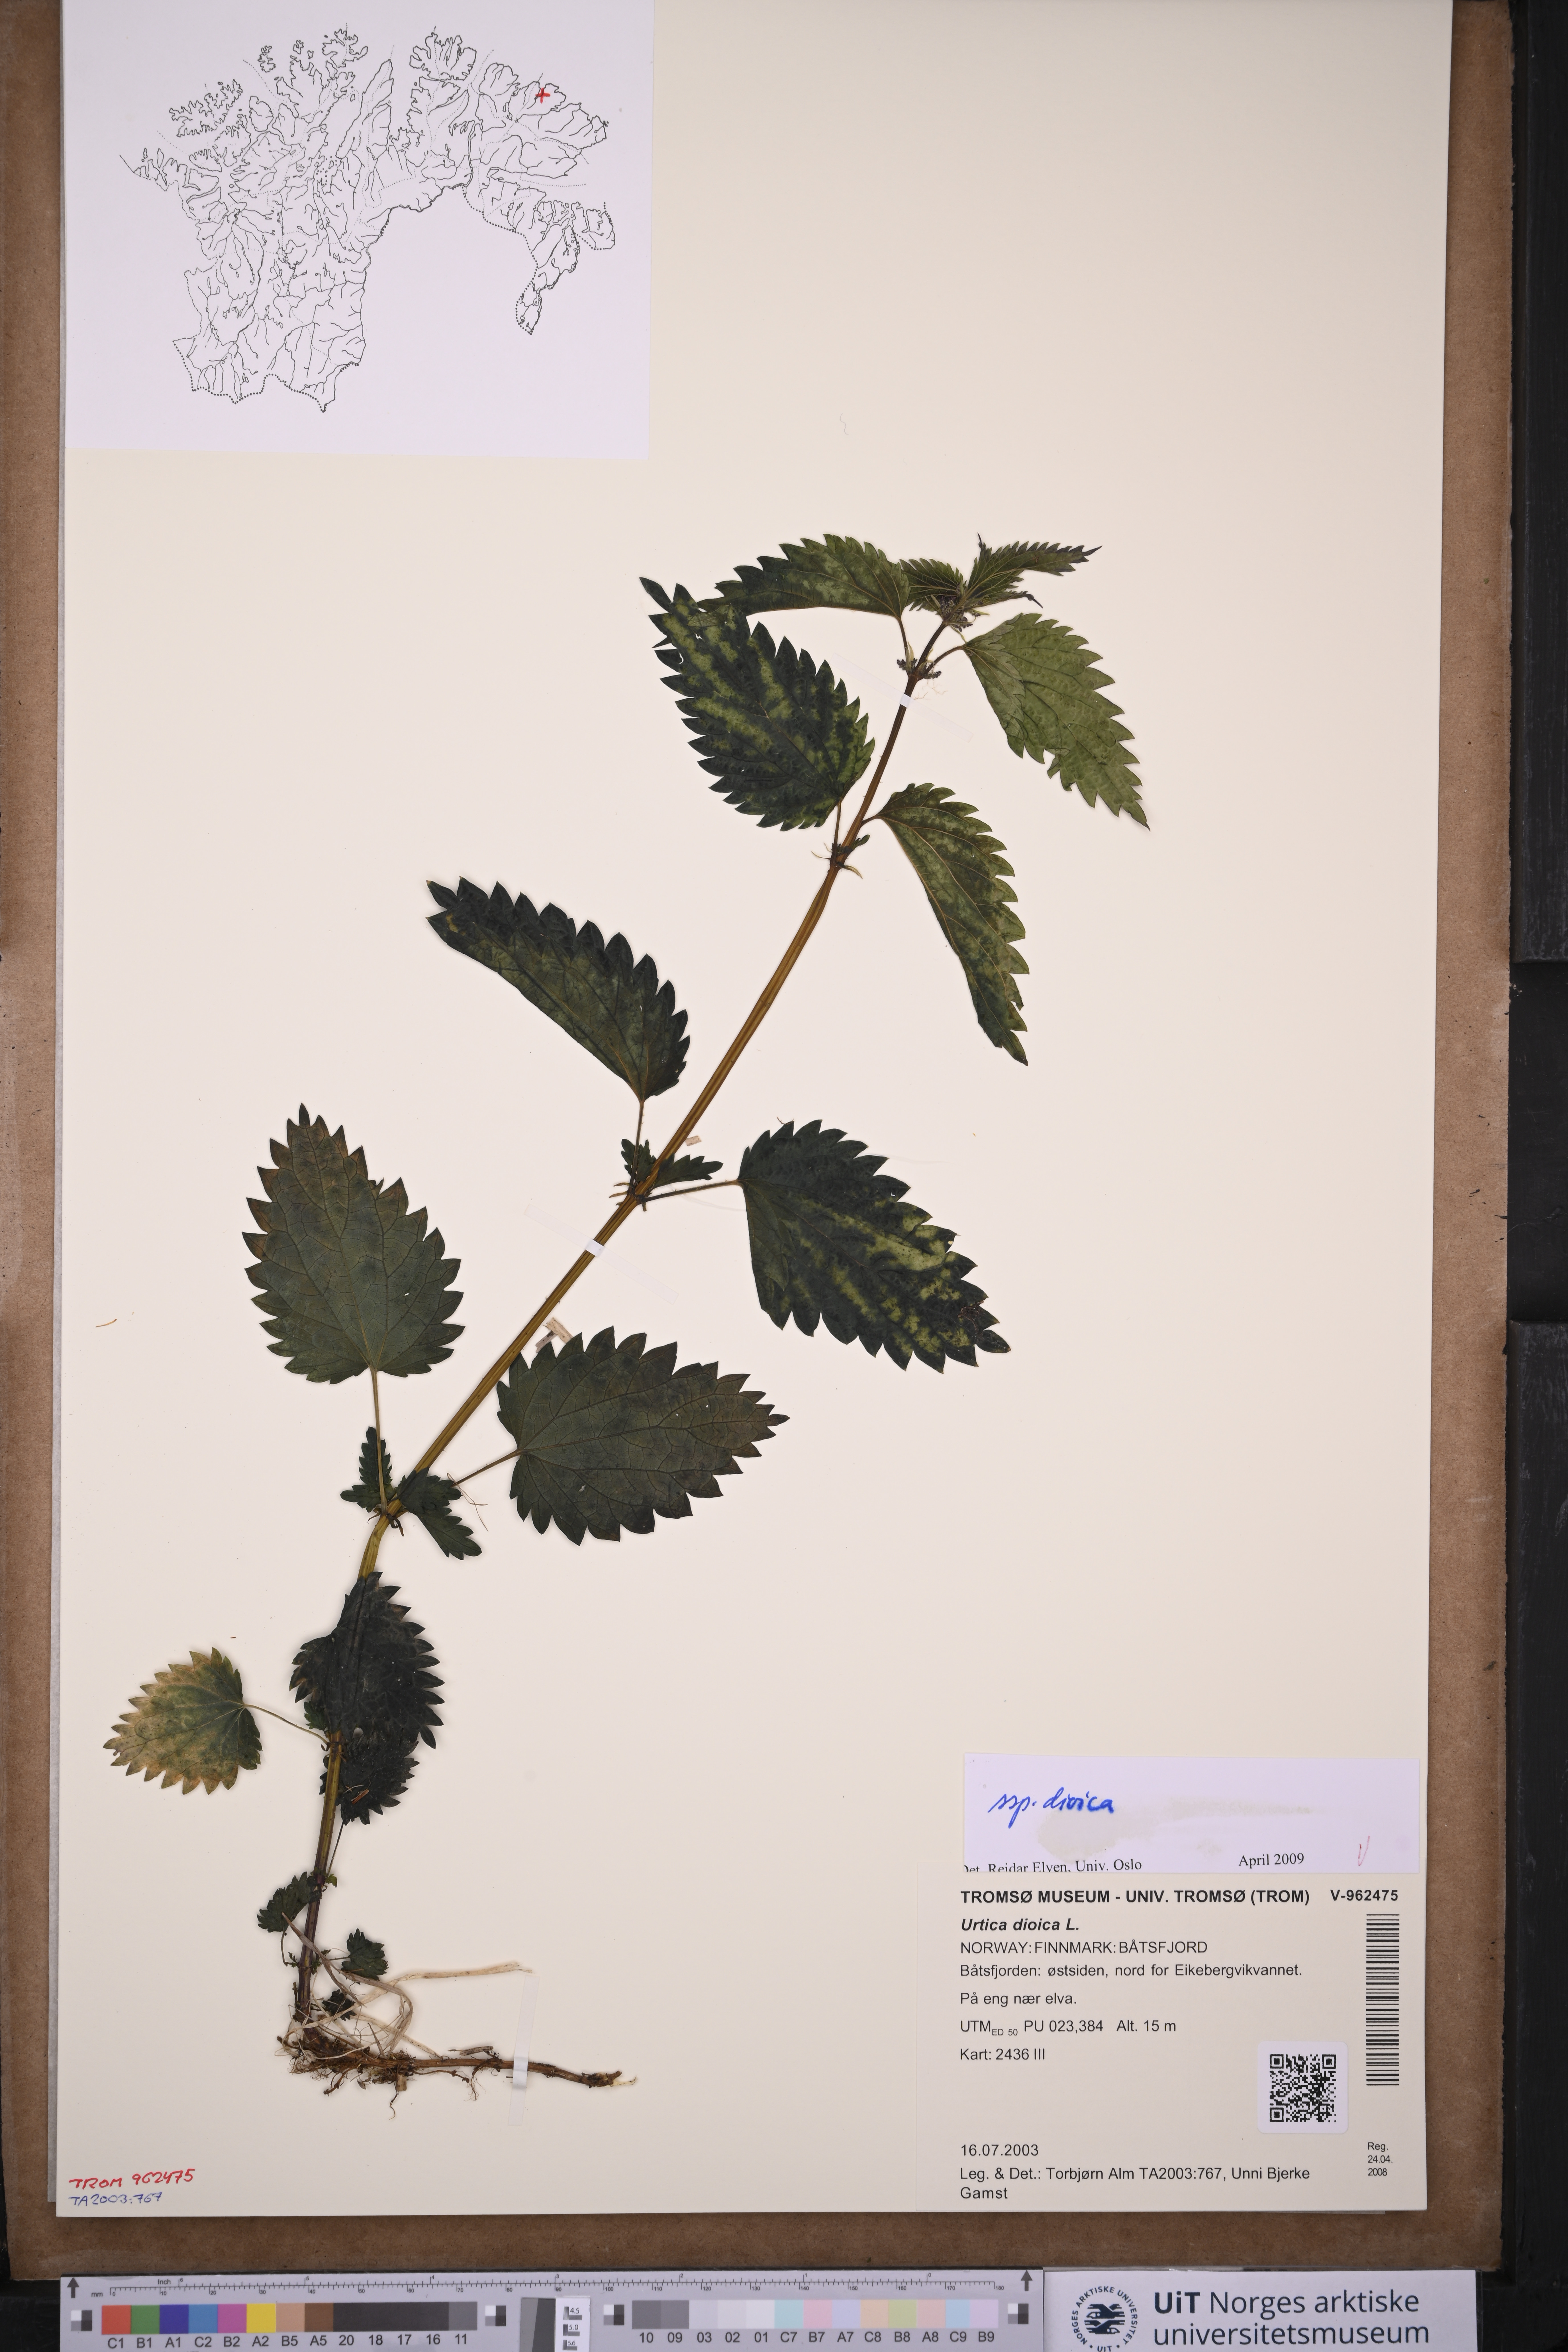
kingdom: Plantae
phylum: Tracheophyta
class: Magnoliopsida
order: Rosales
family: Urticaceae
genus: Urtica
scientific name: Urtica dioica
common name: Common nettle
